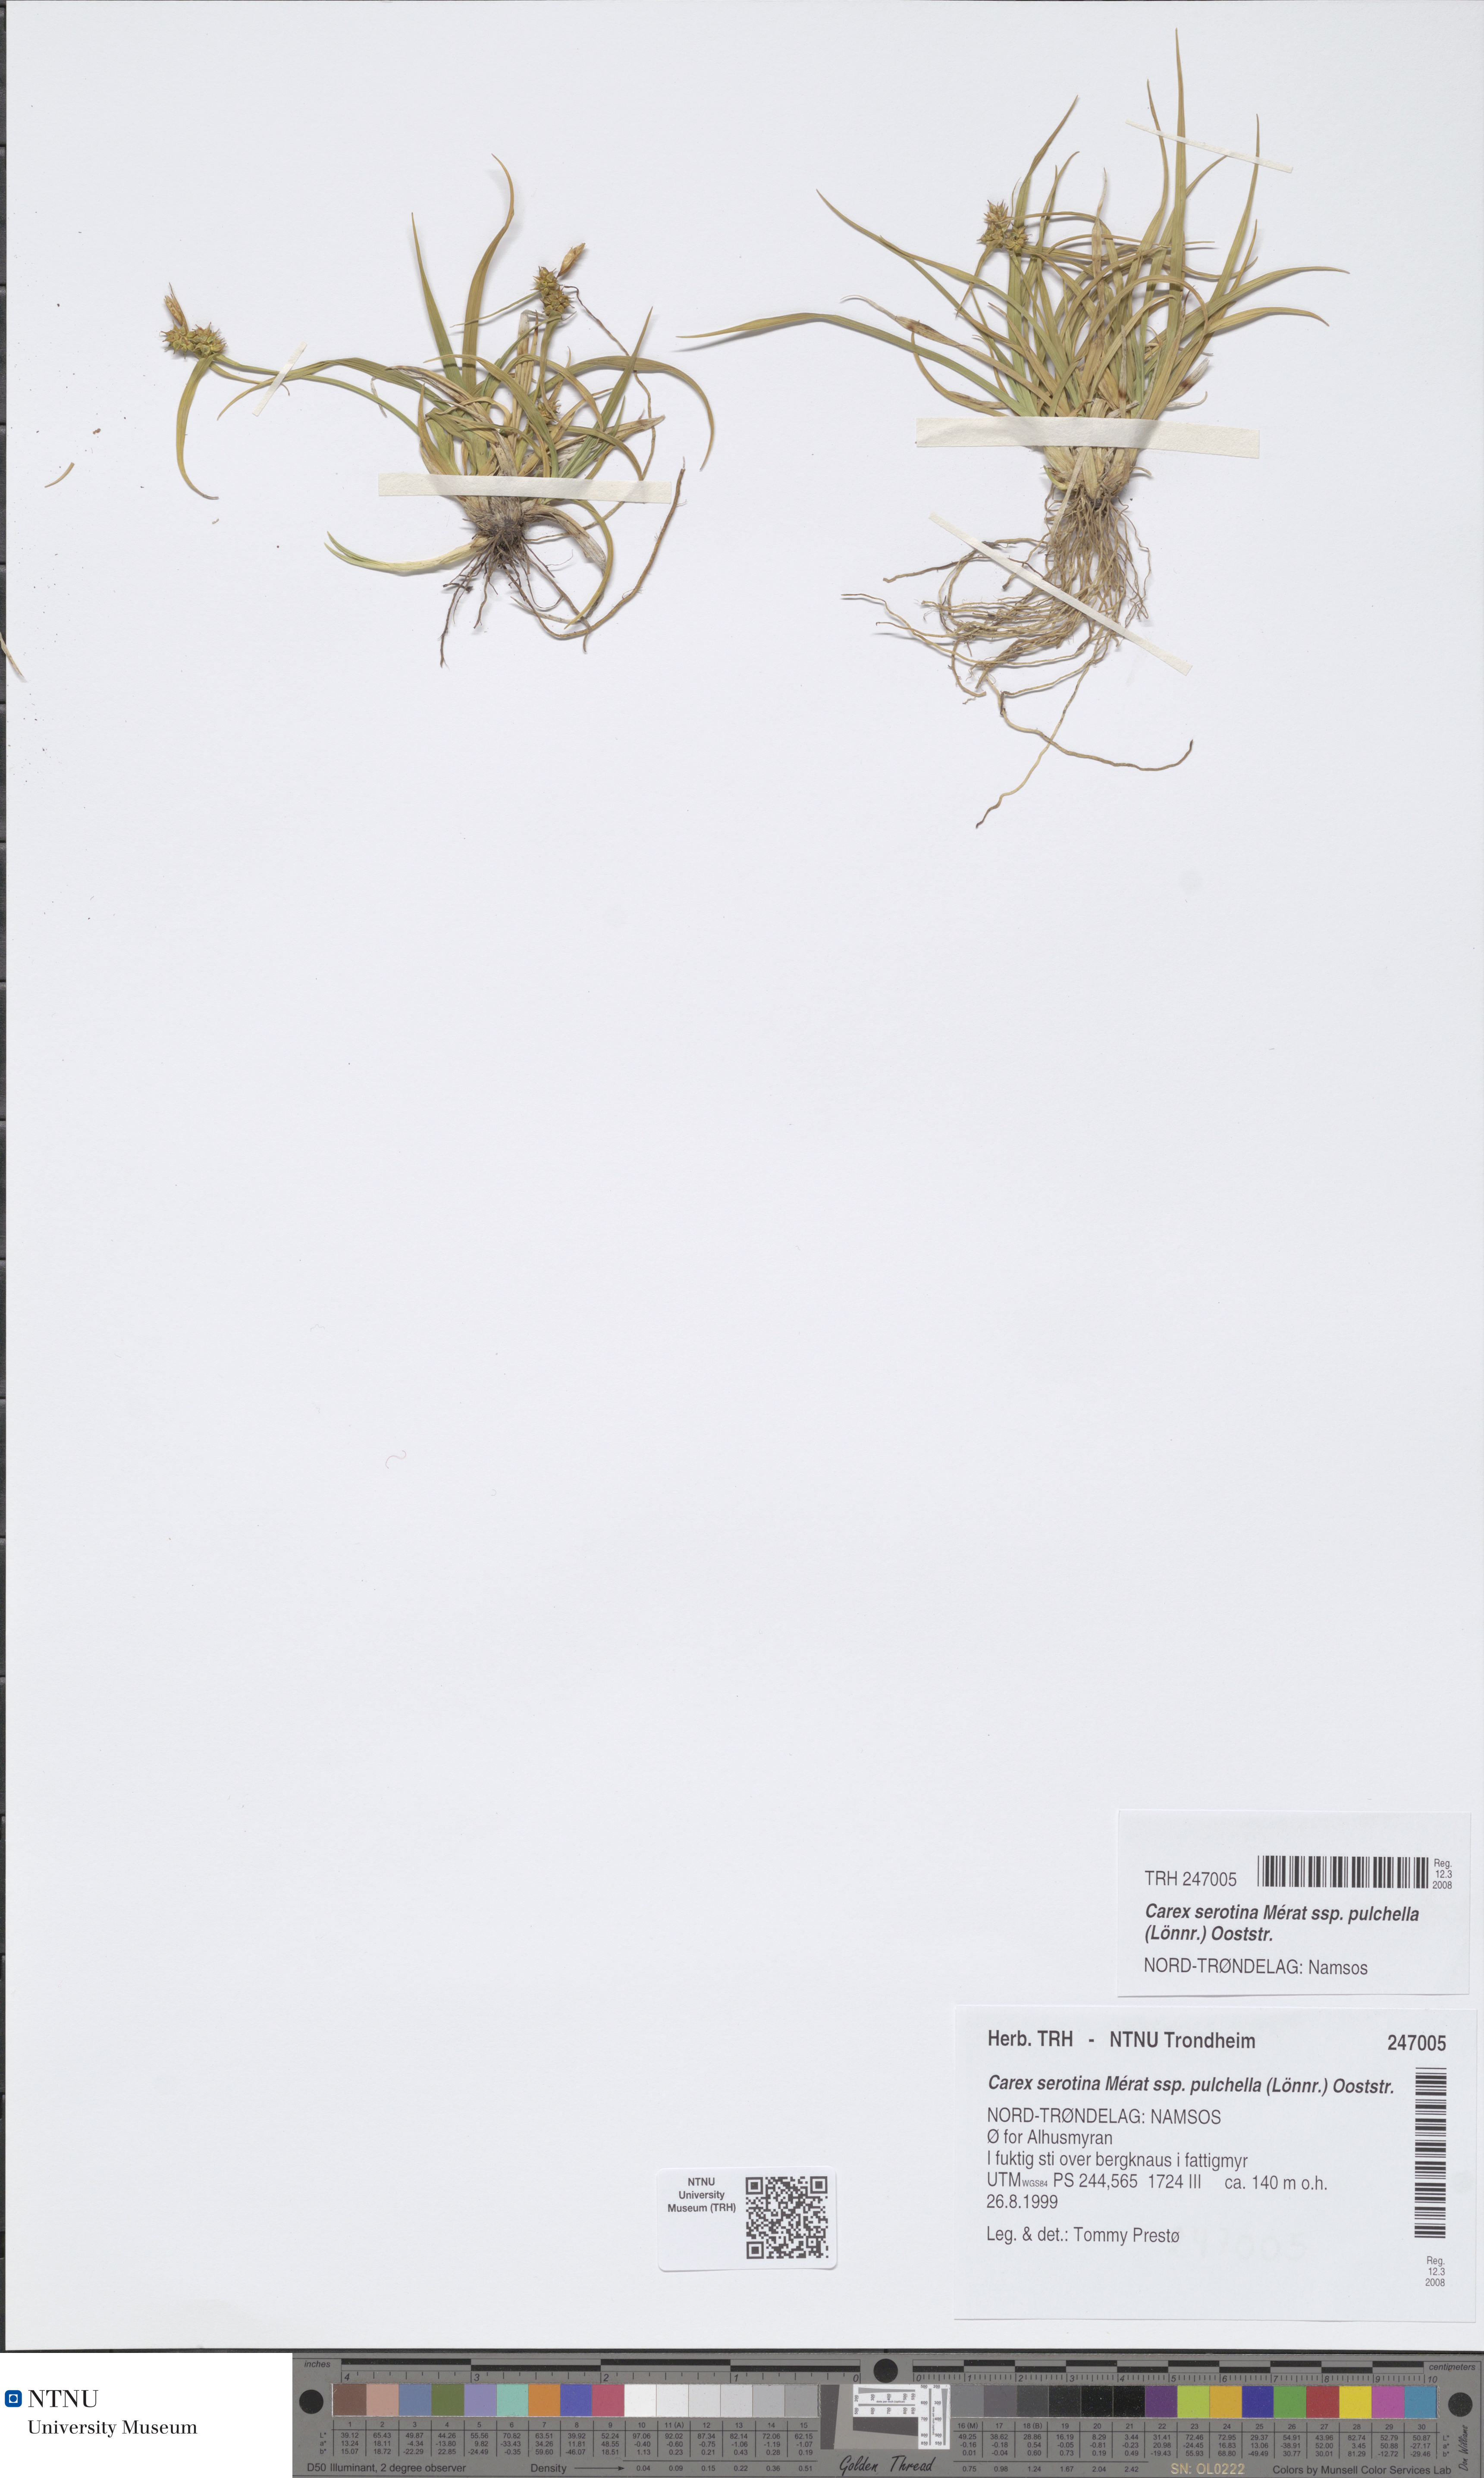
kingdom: Plantae
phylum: Tracheophyta
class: Liliopsida
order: Poales
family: Cyperaceae
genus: Carex
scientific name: Carex oederi
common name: Common & small-fruited yellow-sedge
